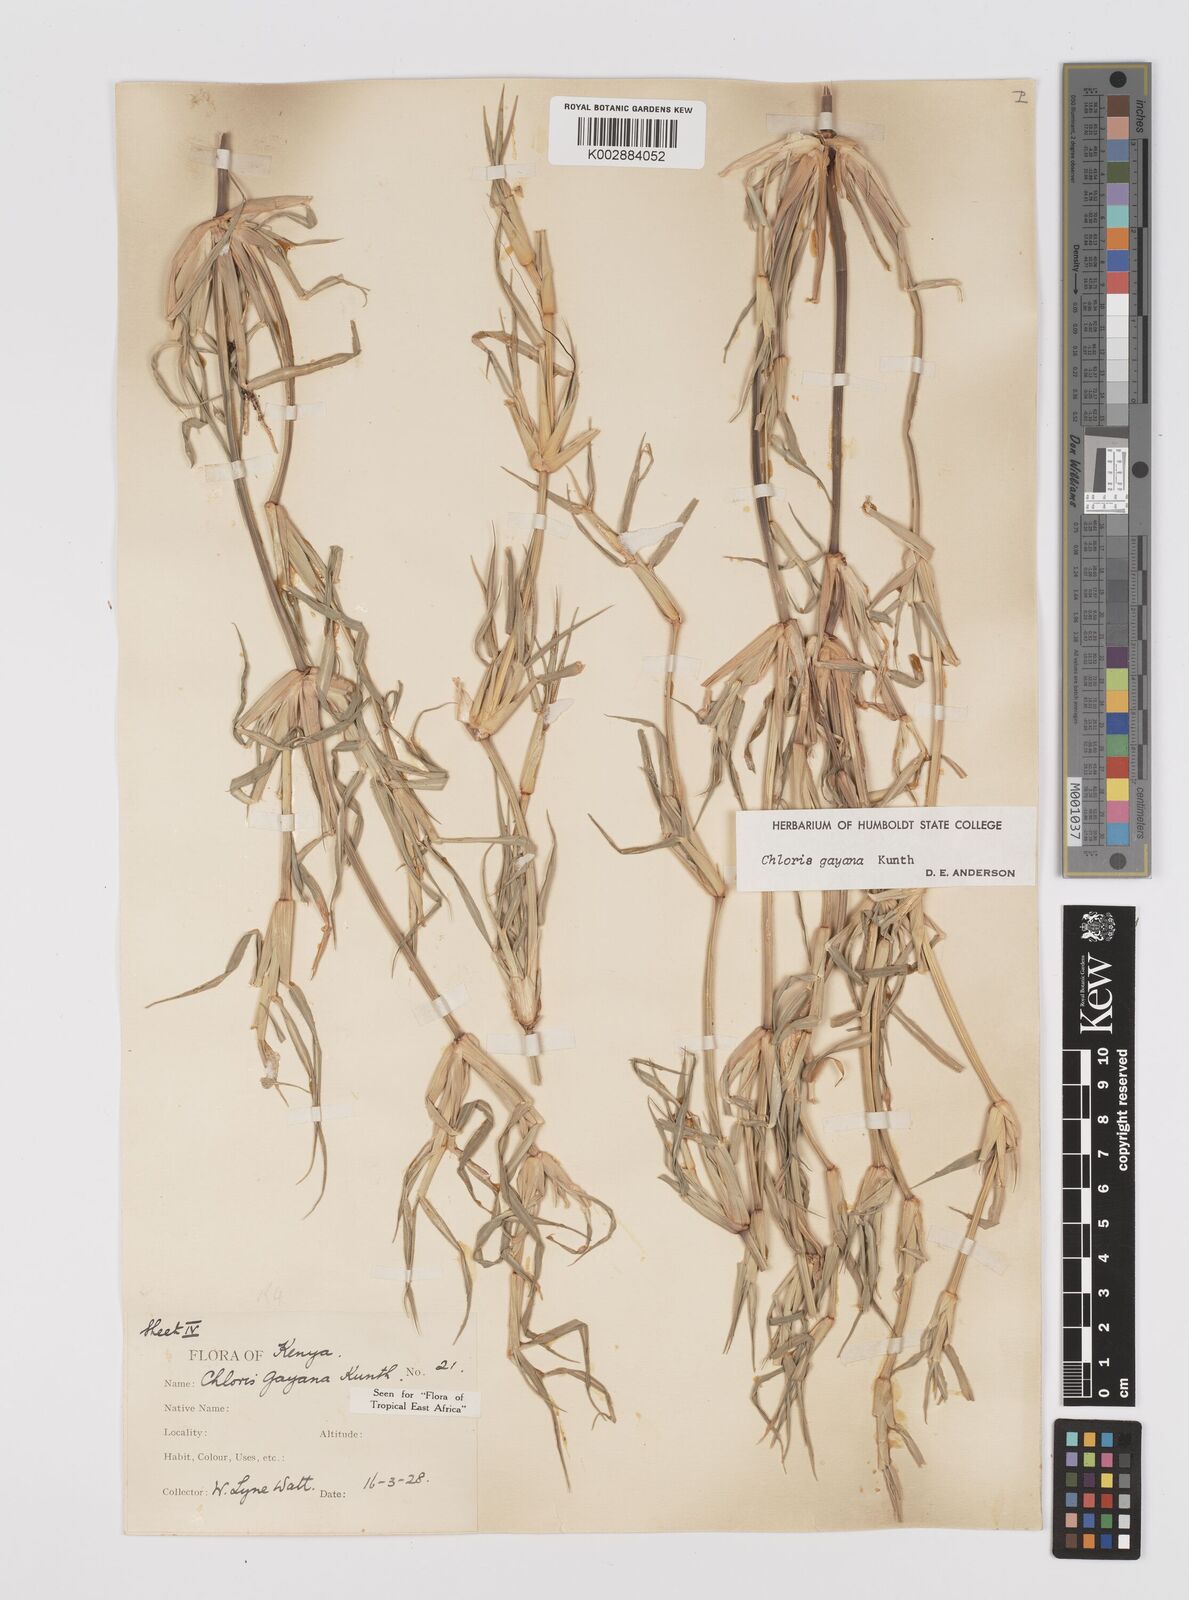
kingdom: Plantae
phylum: Tracheophyta
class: Liliopsida
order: Poales
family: Poaceae
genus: Chloris
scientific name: Chloris gayana
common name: Rhodes grass
